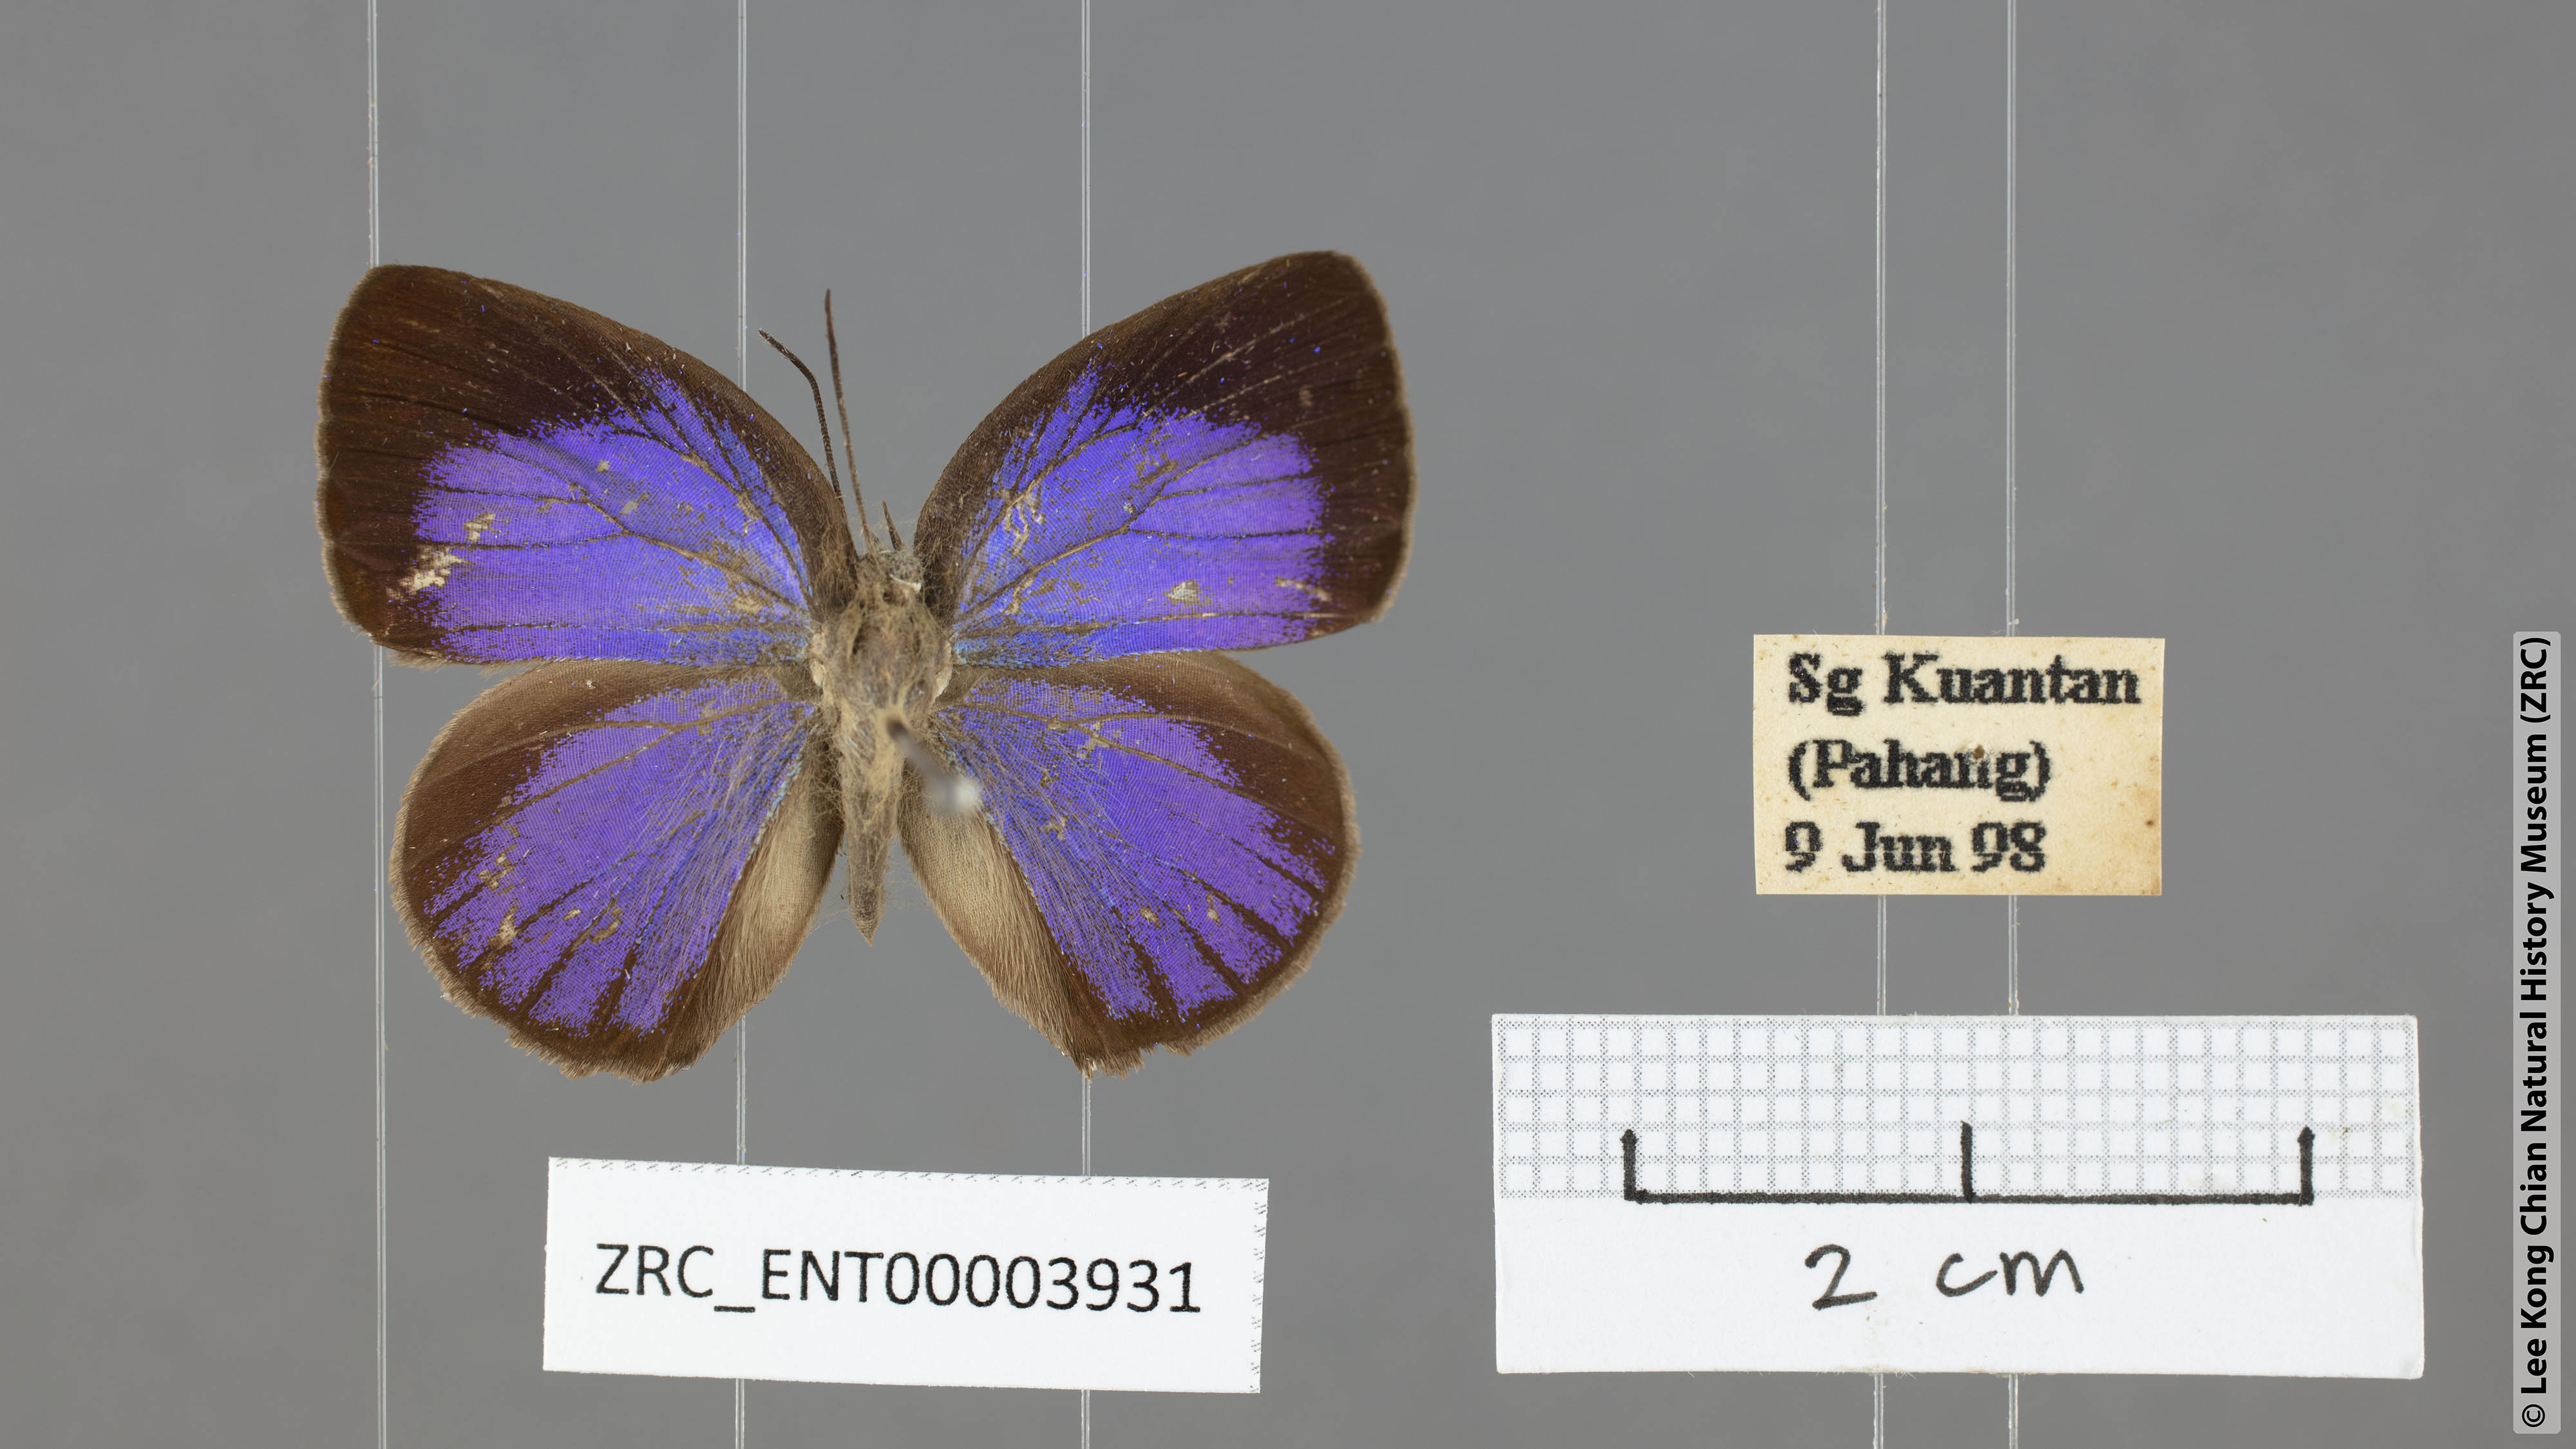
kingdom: Animalia
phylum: Arthropoda
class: Insecta
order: Lepidoptera
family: Lycaenidae
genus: Arhopala
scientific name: Arhopala epimuta
